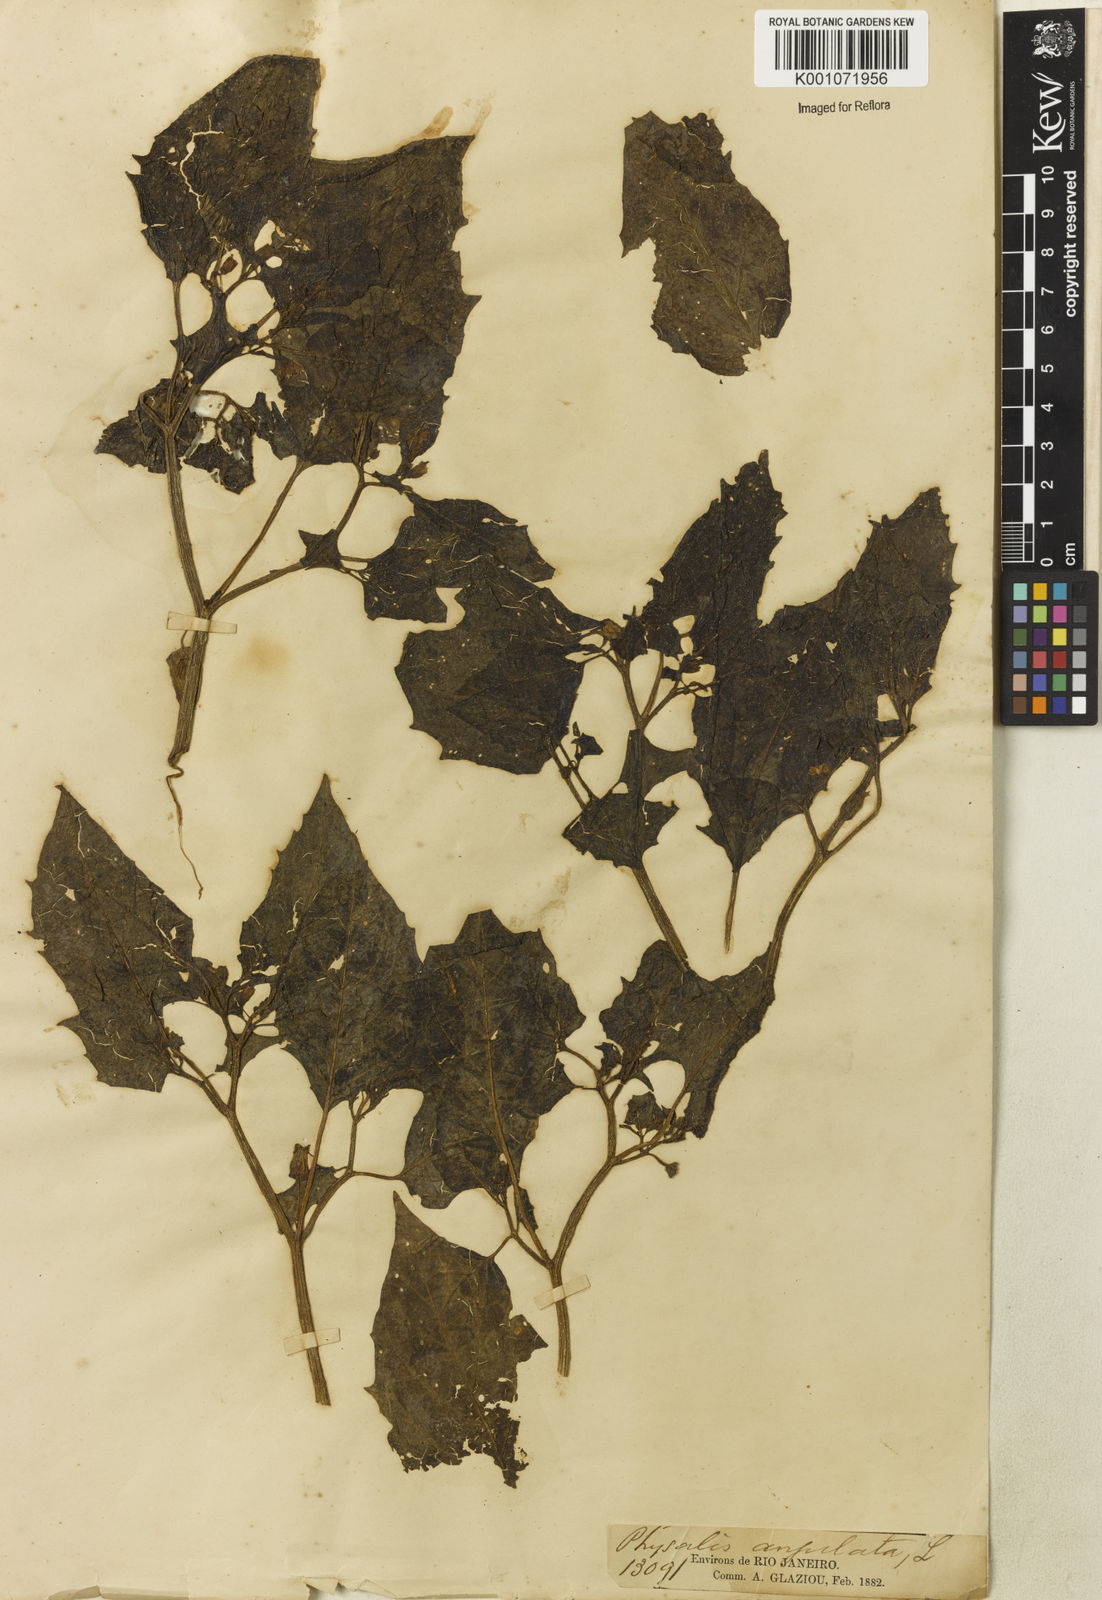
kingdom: Plantae
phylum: Tracheophyta
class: Magnoliopsida
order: Solanales
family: Solanaceae
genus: Physalis
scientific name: Physalis angulata
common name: Angular winter-cherry
